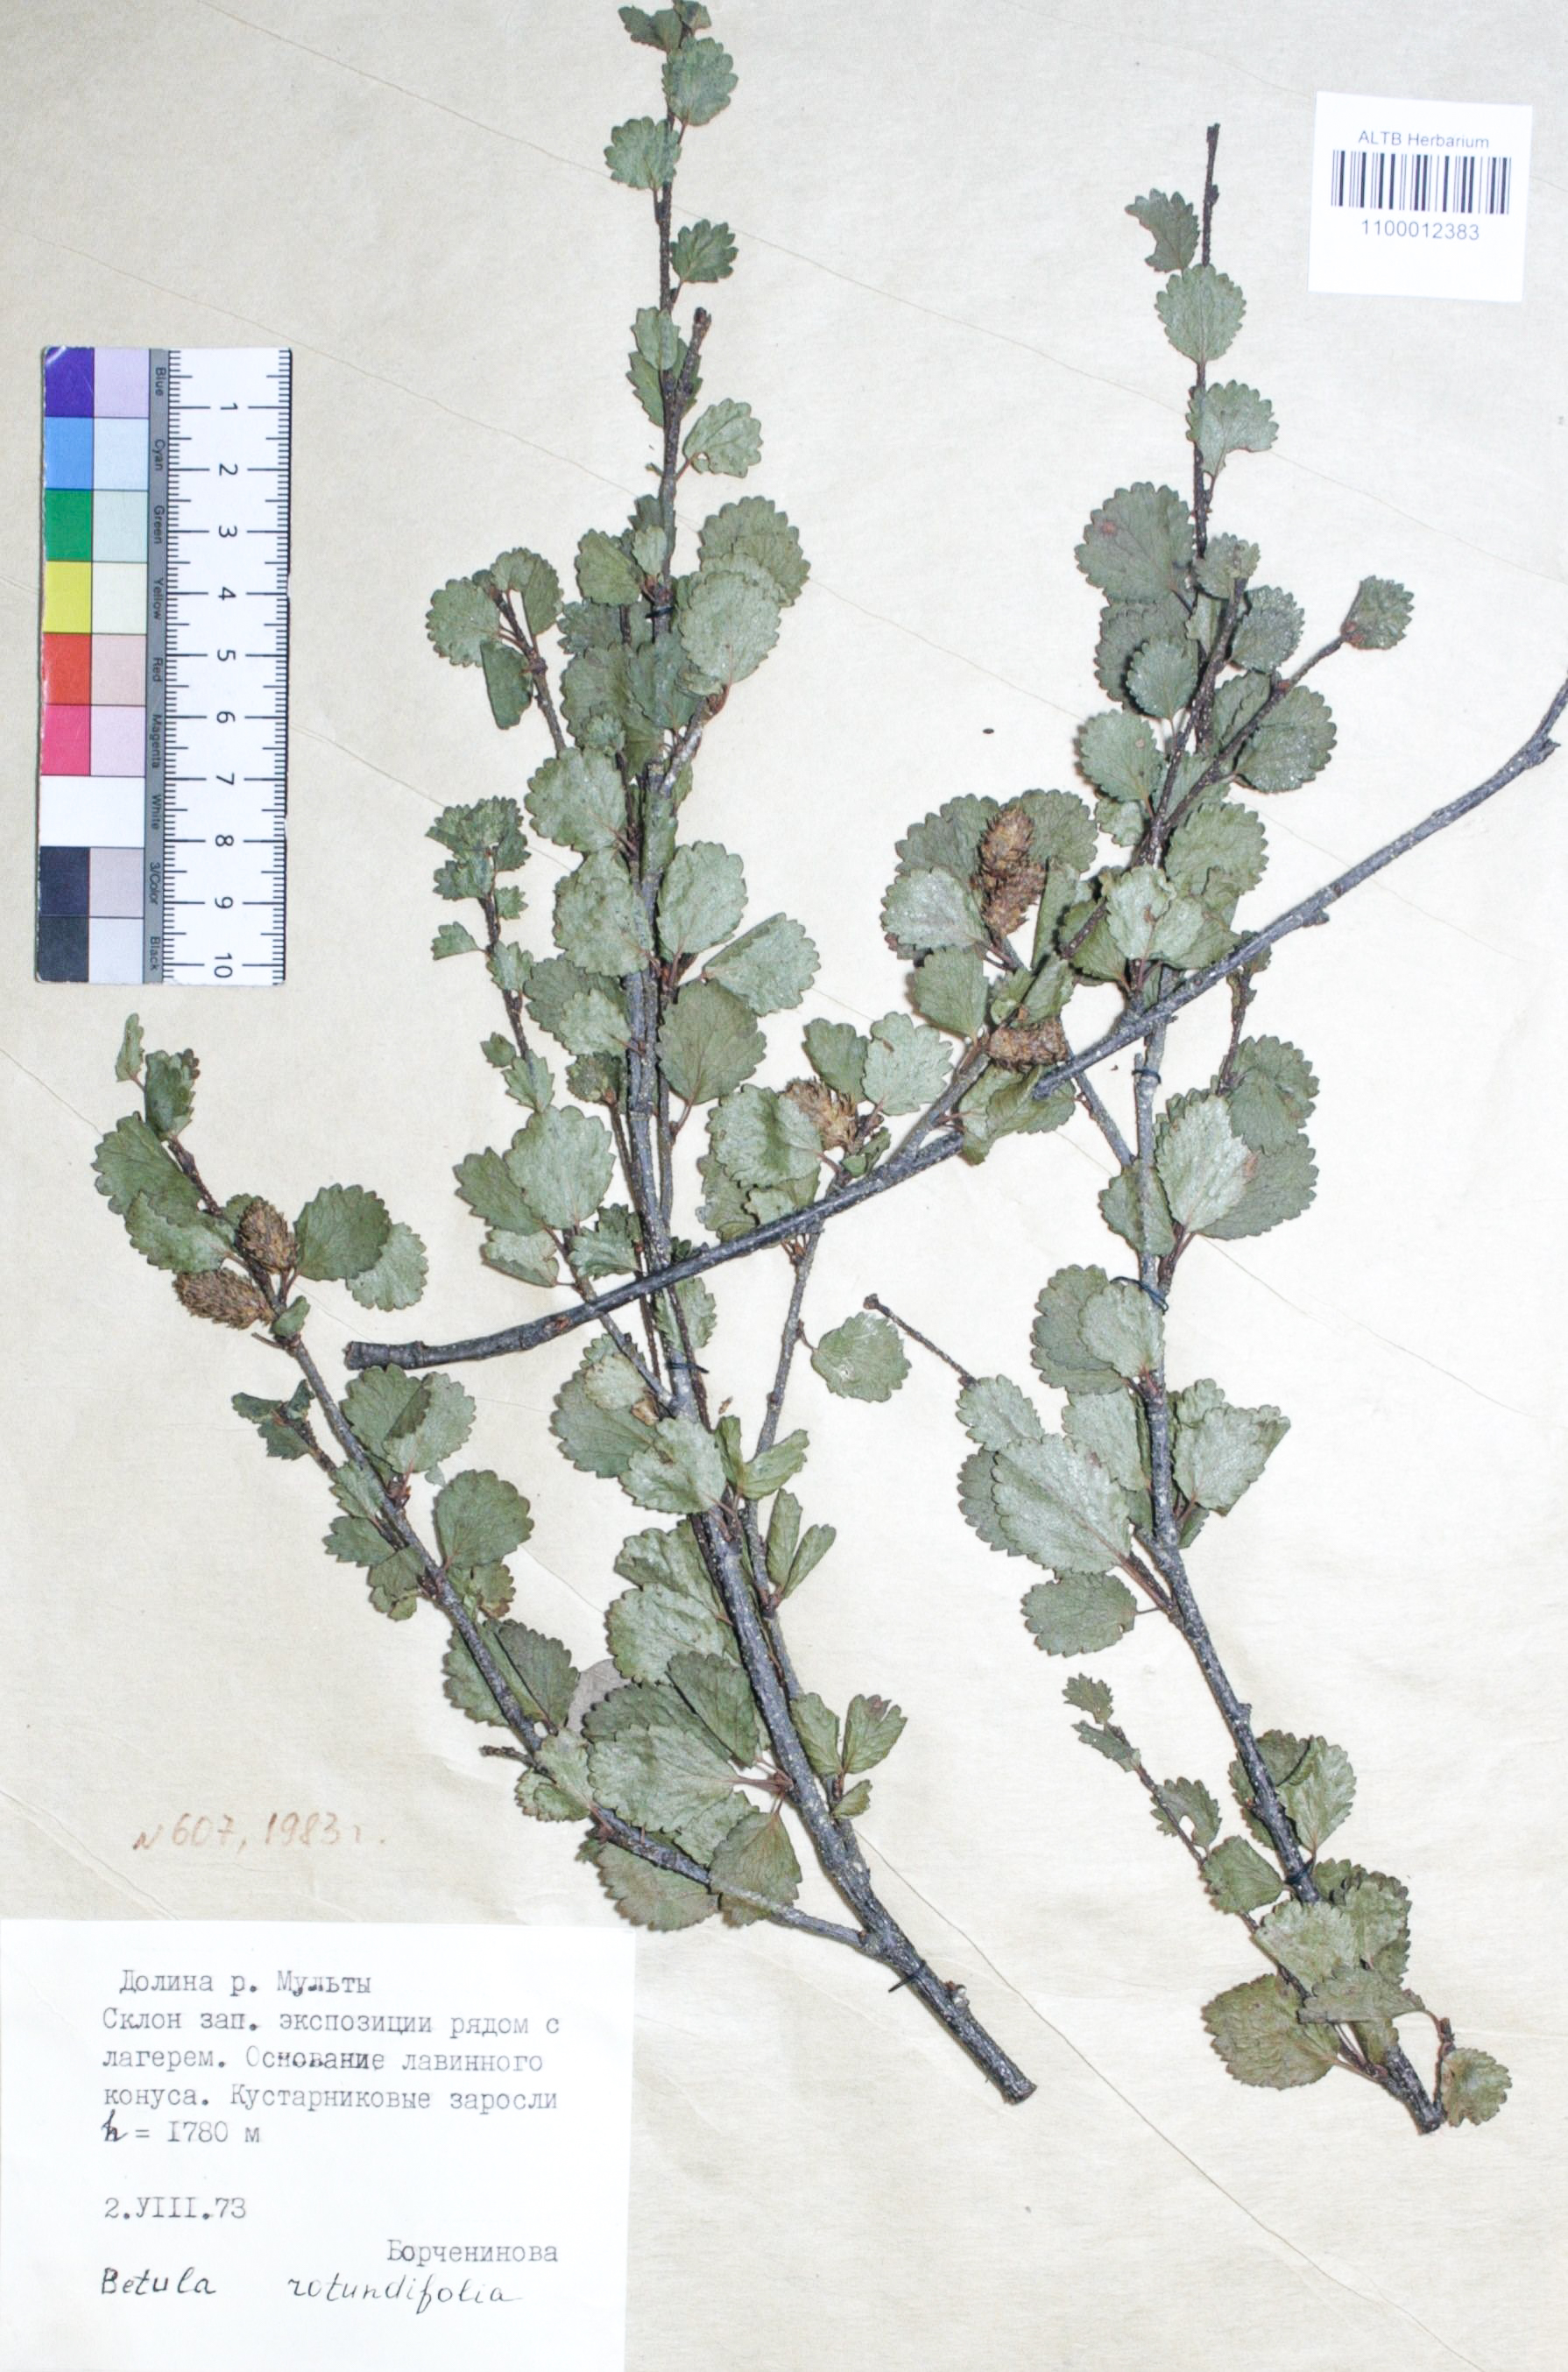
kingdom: Plantae
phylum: Tracheophyta
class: Magnoliopsida
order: Fagales
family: Betulaceae
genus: Betula
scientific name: Betula glandulosa
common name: Dwarf birch
